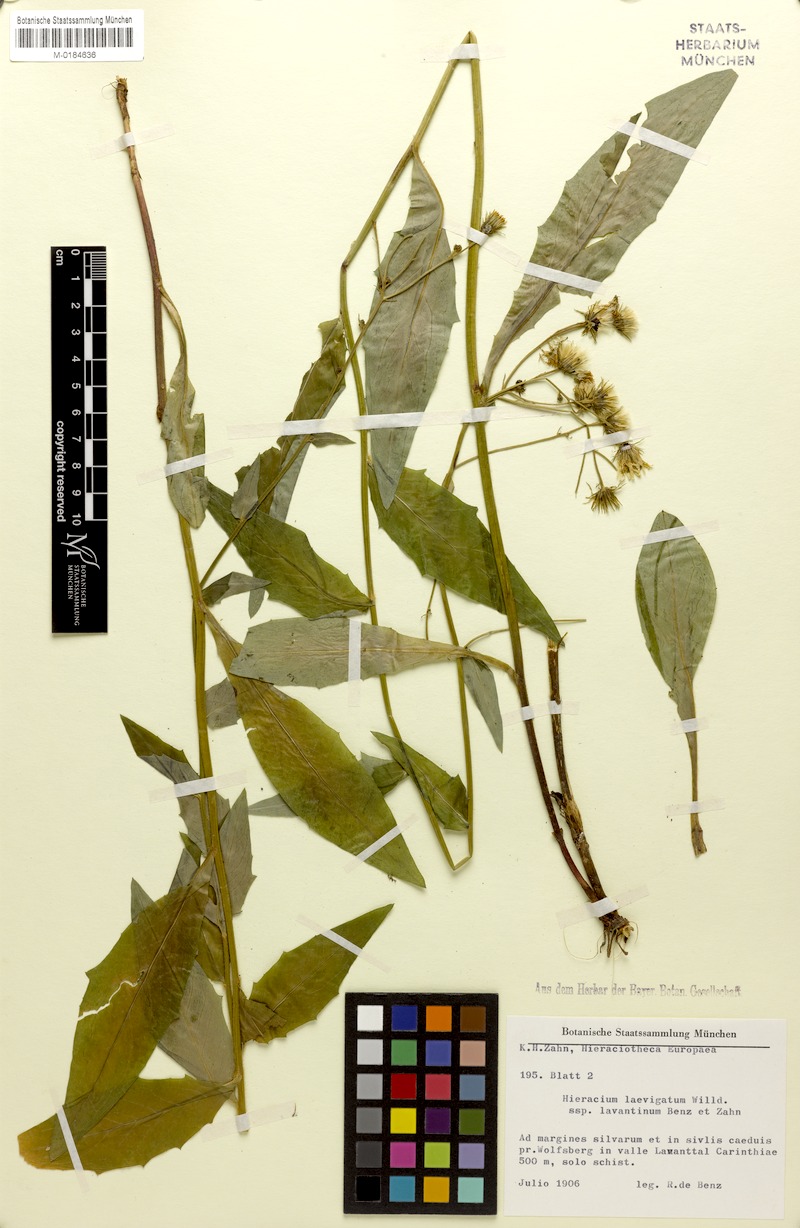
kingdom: Plantae
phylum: Tracheophyta
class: Magnoliopsida
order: Asterales
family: Asteraceae
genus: Hieracium
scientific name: Hieracium flagelliferum
